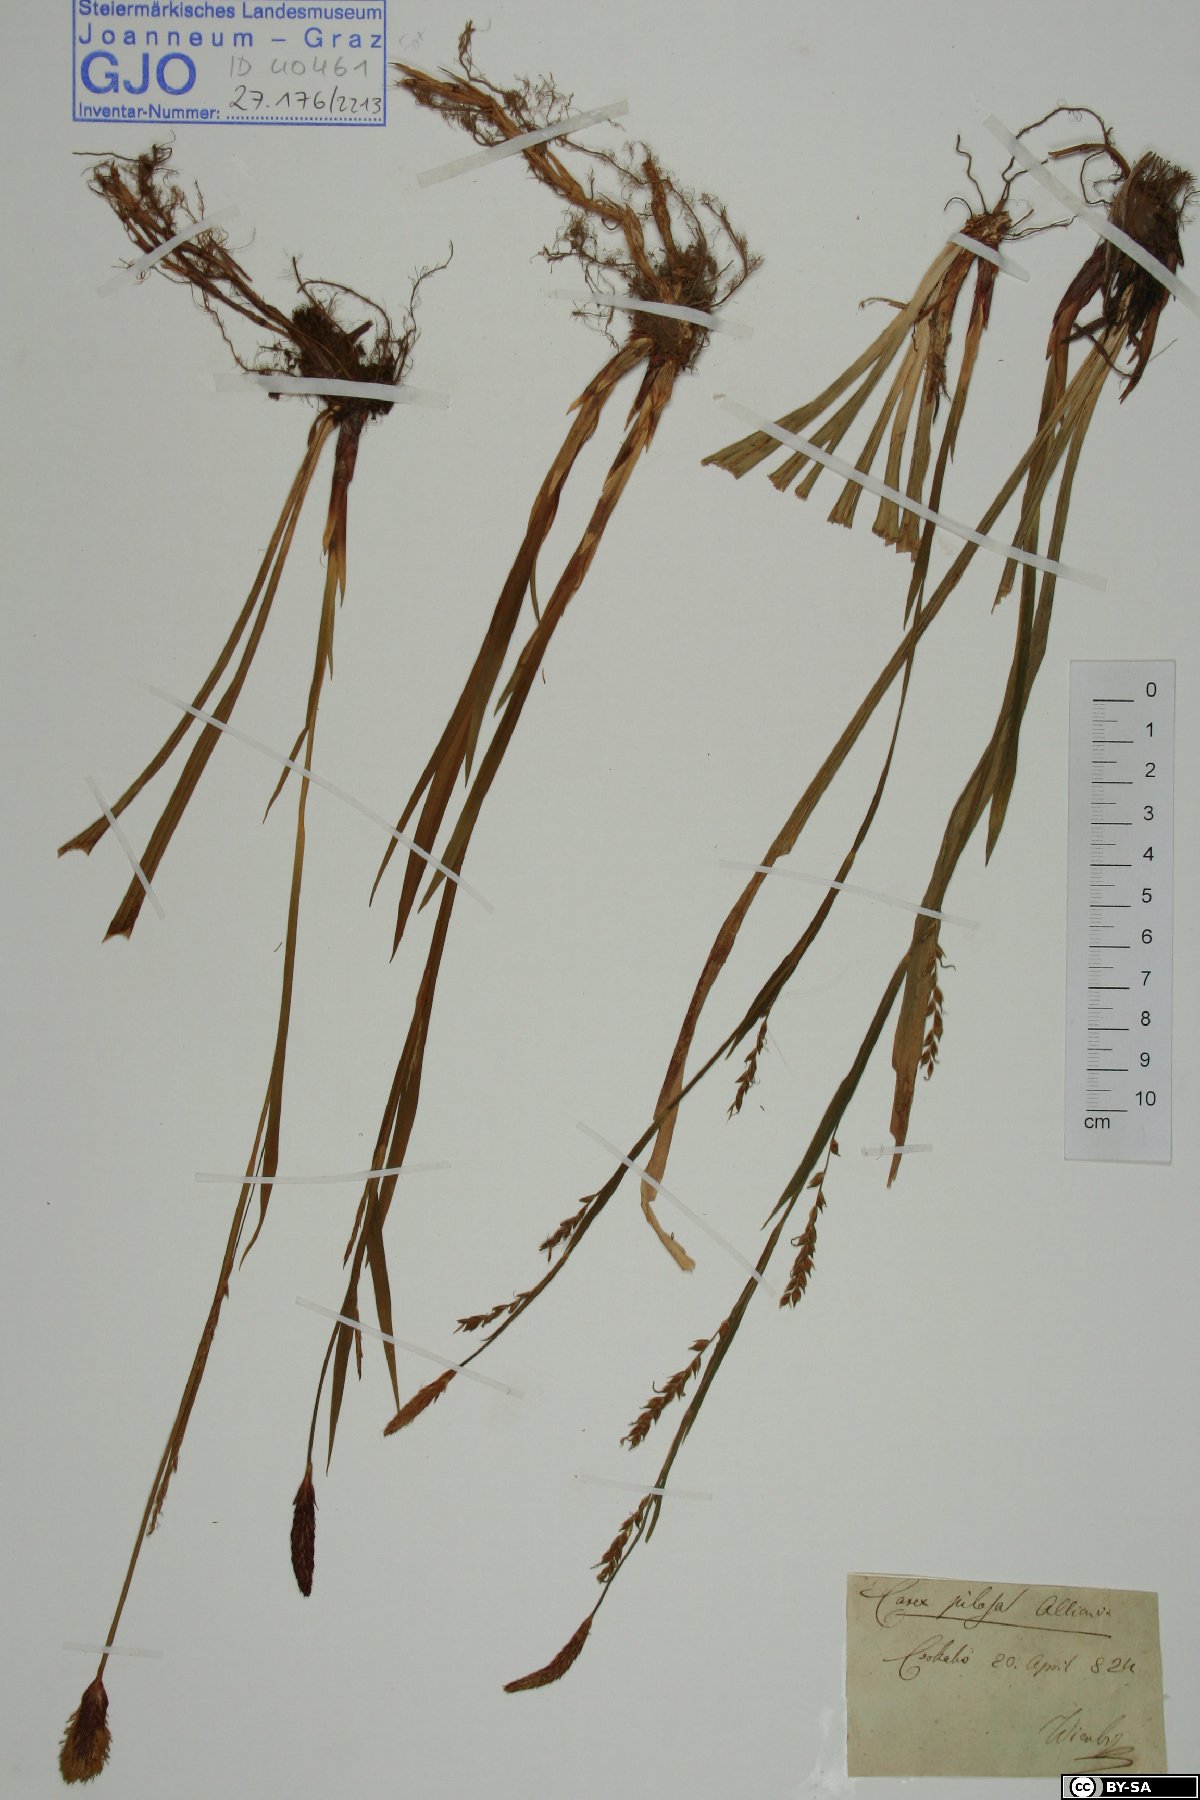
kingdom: Plantae
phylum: Tracheophyta
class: Liliopsida
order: Poales
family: Cyperaceae
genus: Carex
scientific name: Carex pilosa
